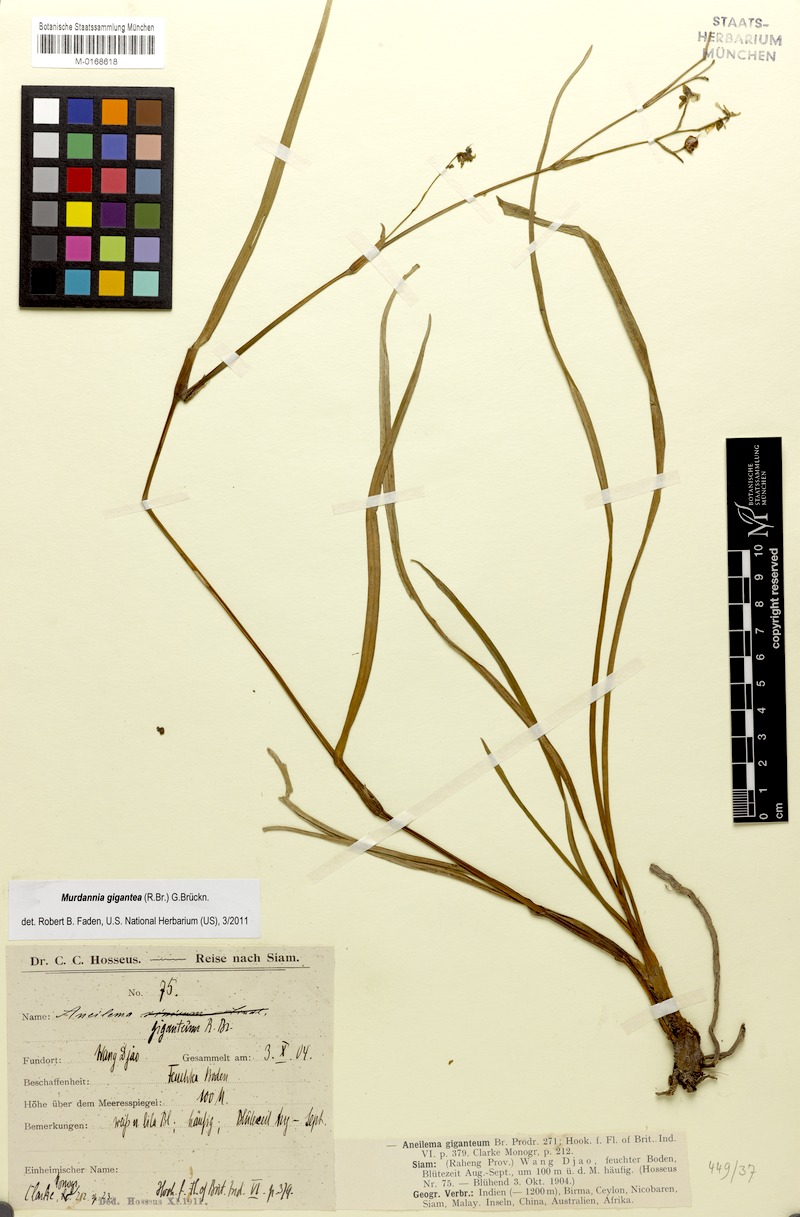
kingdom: Plantae
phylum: Tracheophyta
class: Liliopsida
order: Commelinales
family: Commelinaceae
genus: Murdannia
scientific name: Murdannia gigantea
